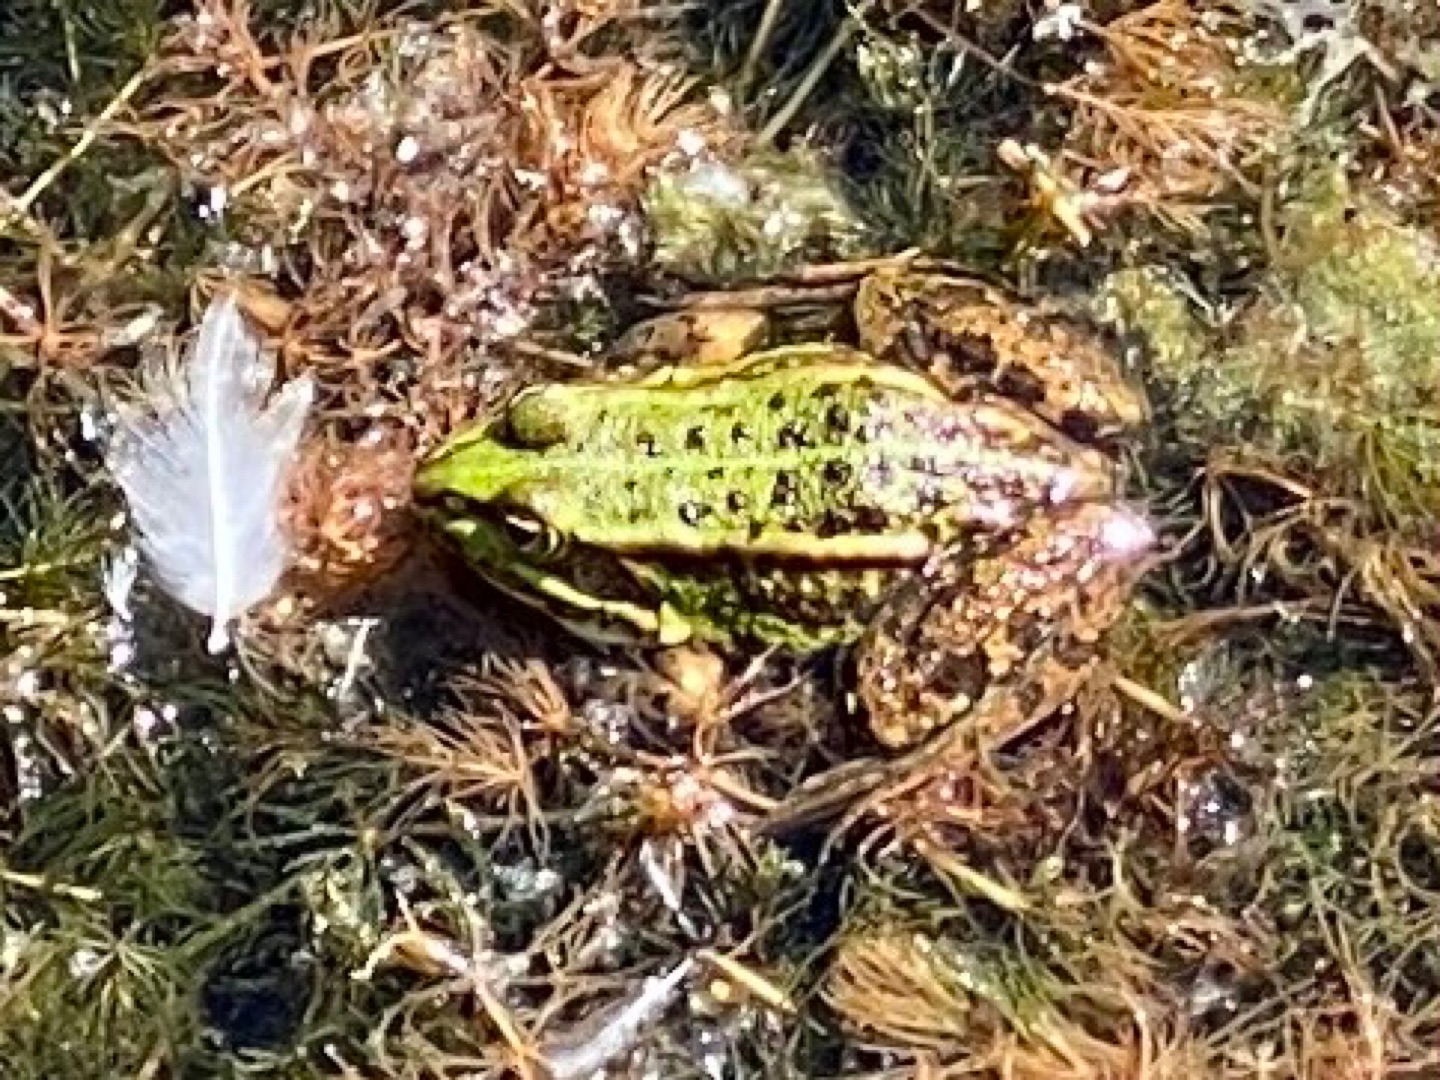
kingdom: Animalia
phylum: Chordata
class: Amphibia
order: Anura
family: Ranidae
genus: Pelophylax
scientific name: Pelophylax lessonae
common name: Grøn frø
